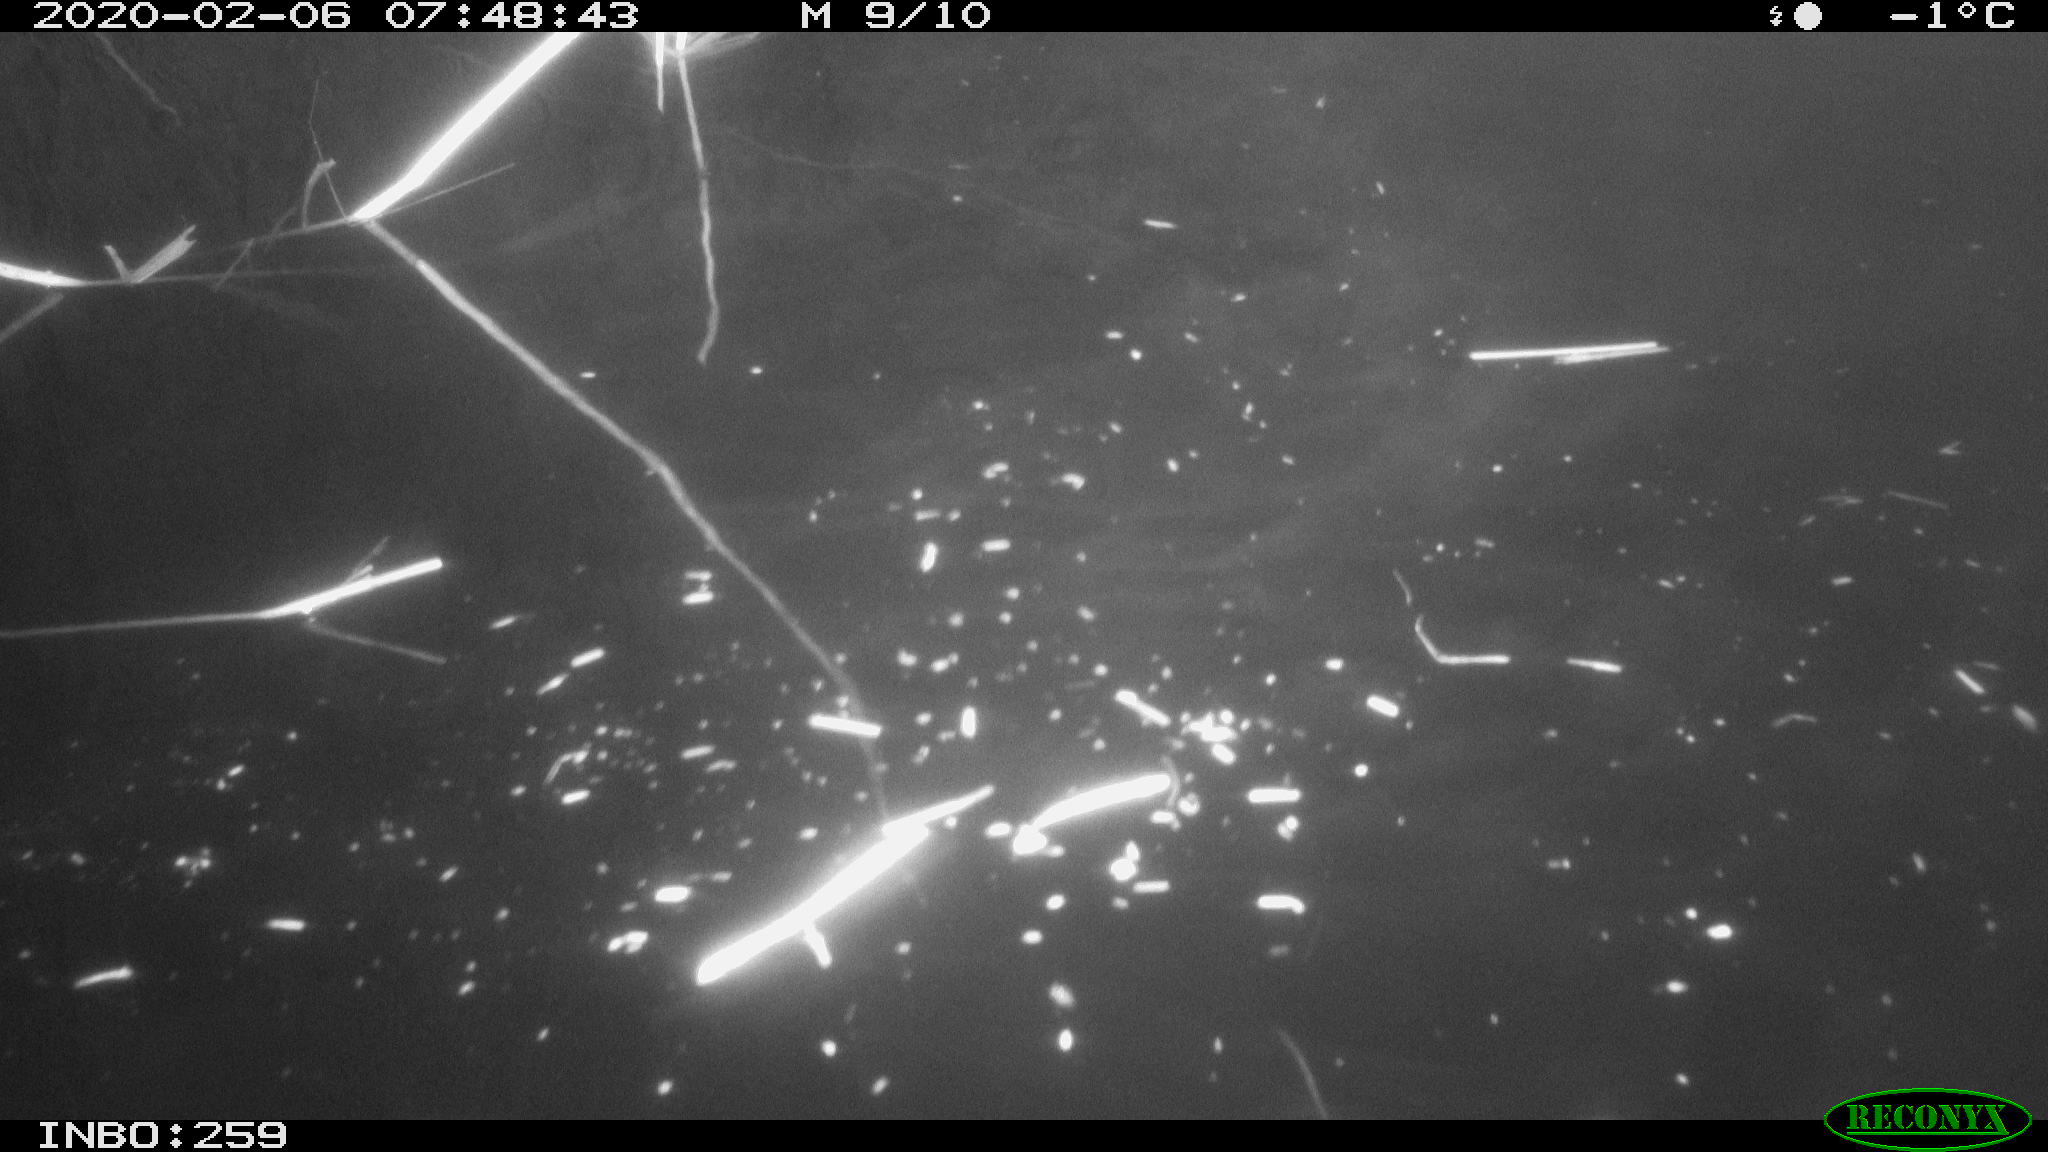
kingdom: Animalia
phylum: Chordata
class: Aves
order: Gruiformes
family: Rallidae
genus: Gallinula
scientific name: Gallinula chloropus
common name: Common moorhen
